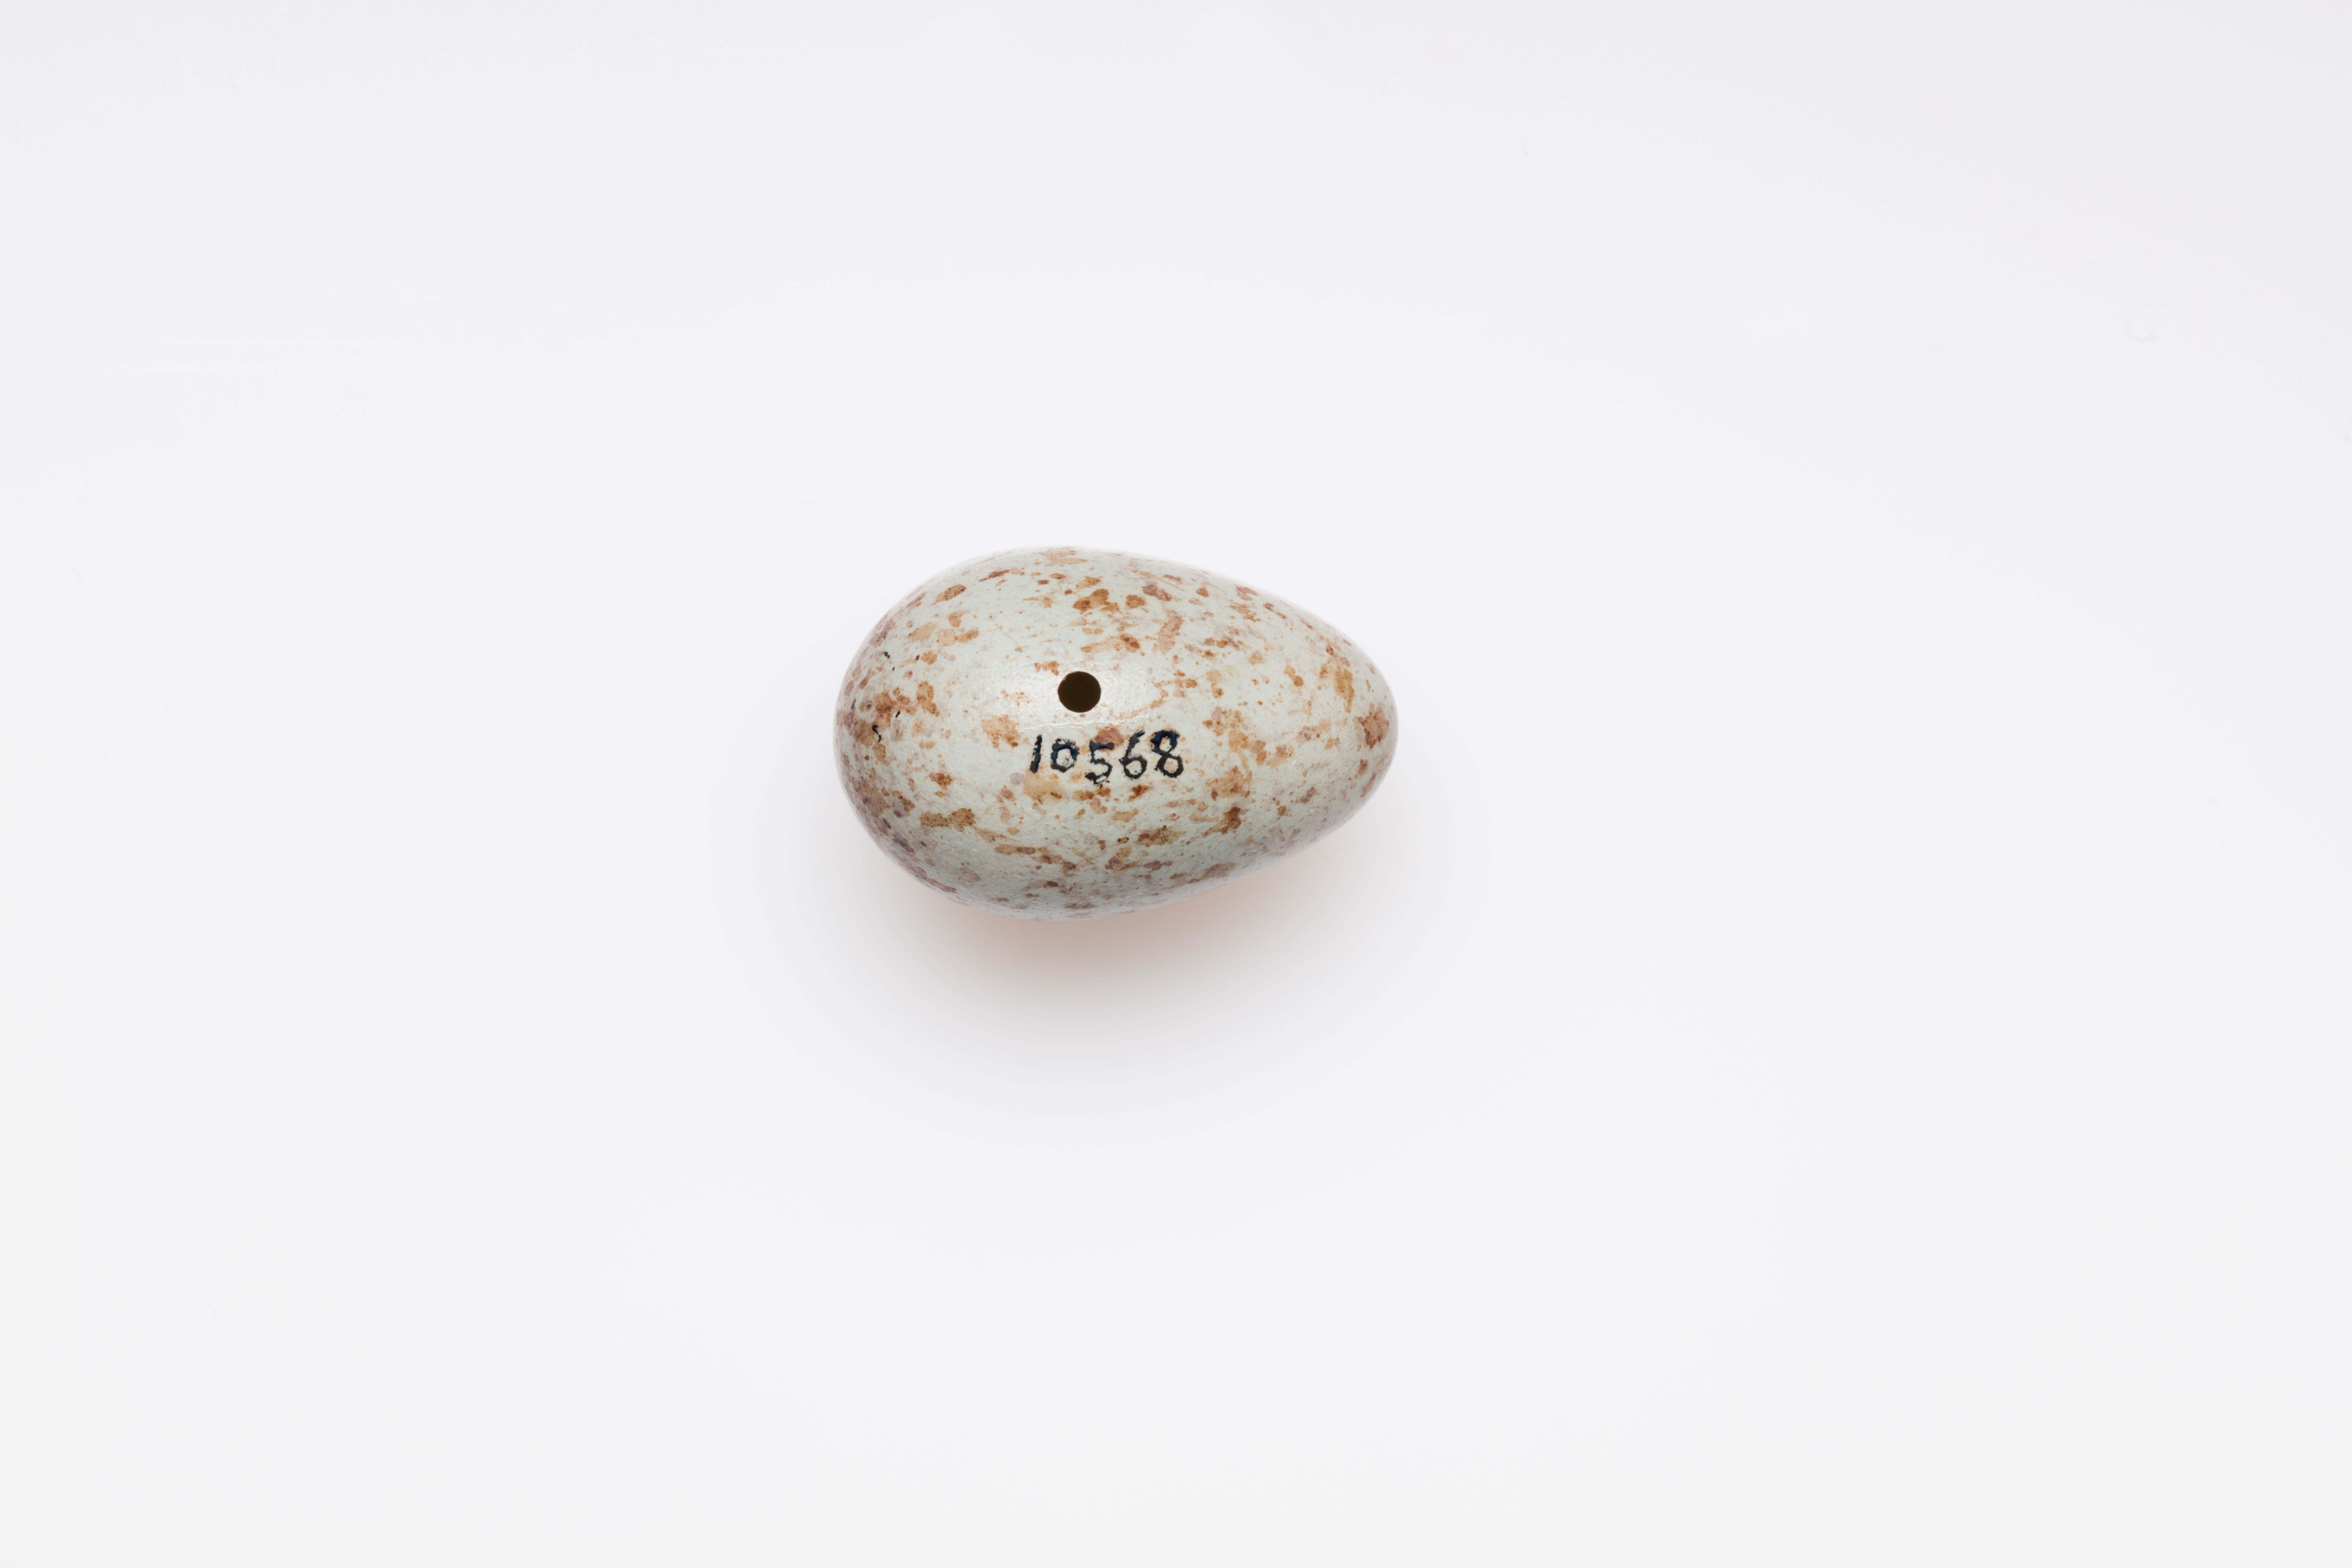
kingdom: Animalia
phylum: Chordata
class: Aves
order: Passeriformes
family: Turdidae
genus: Turdus
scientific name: Turdus torquatus
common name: Ring ouzel
